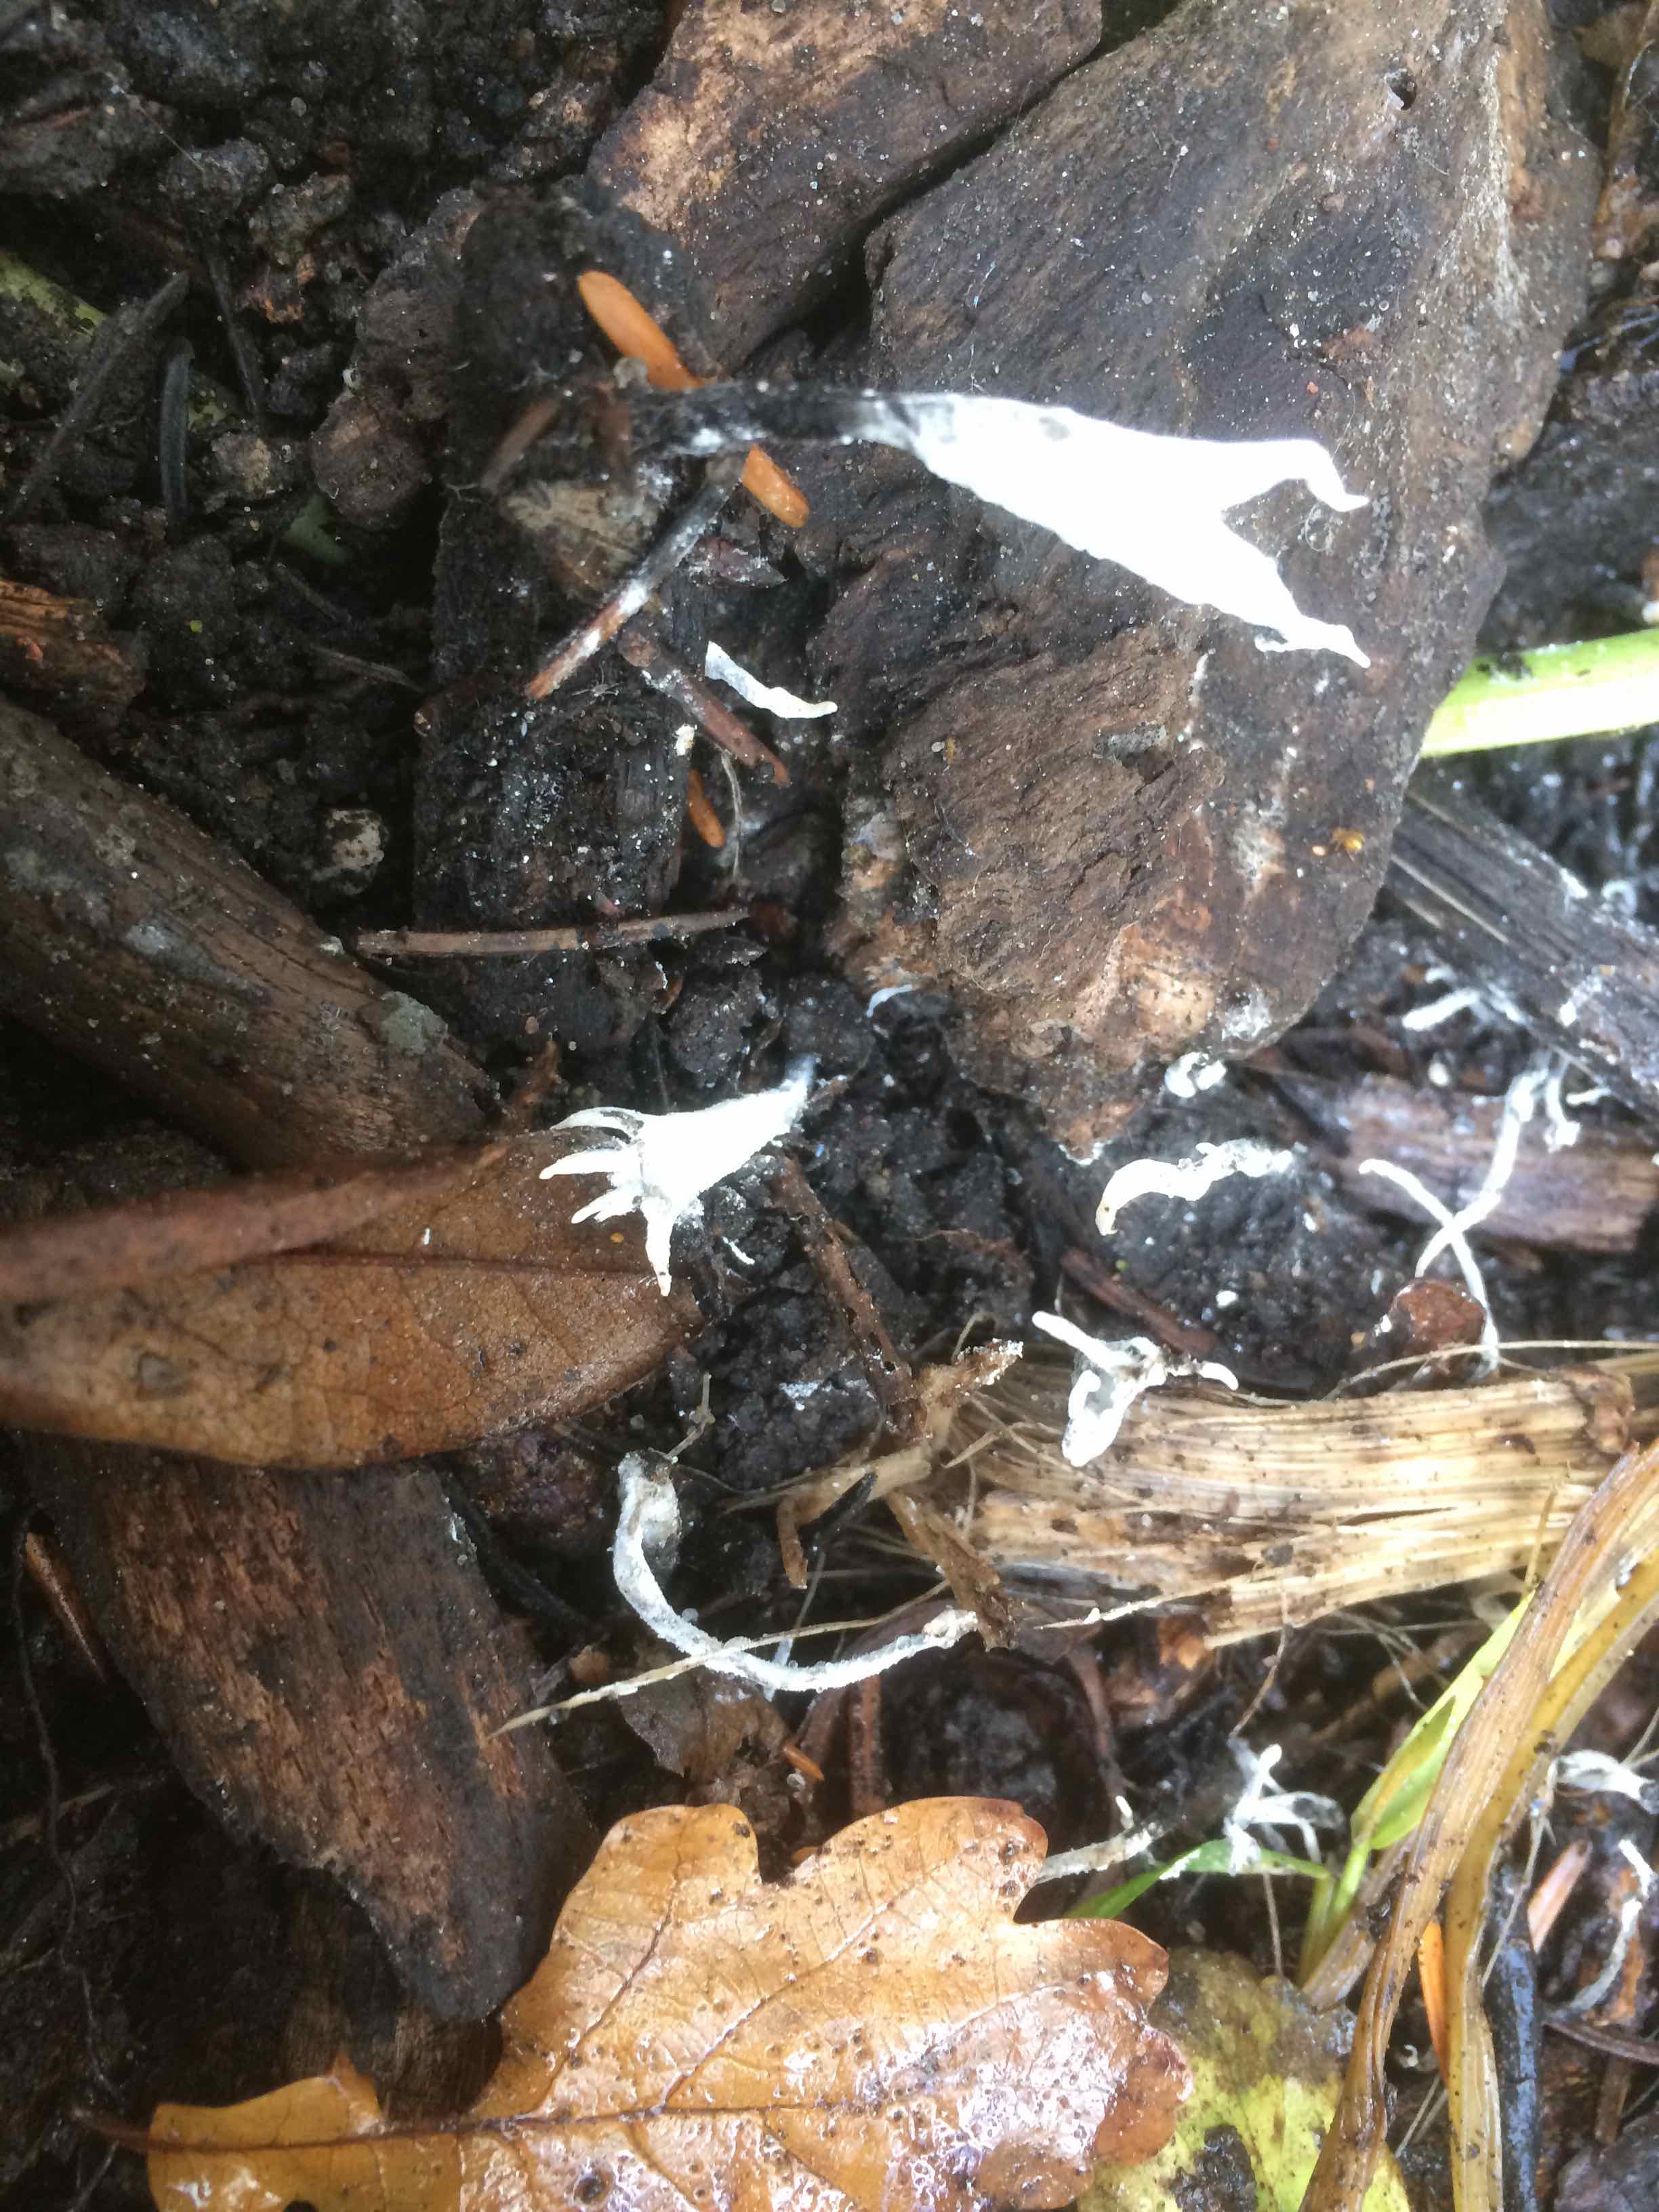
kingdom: Fungi
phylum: Ascomycota
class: Sordariomycetes
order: Xylariales
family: Xylariaceae
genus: Xylaria
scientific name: Xylaria hypoxylon
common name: grenet stødsvamp
